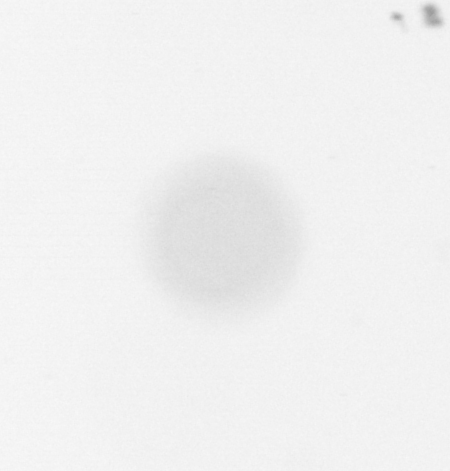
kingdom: Chromista
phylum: Ochrophyta
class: Bacillariophyceae
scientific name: Bacillariophyceae
